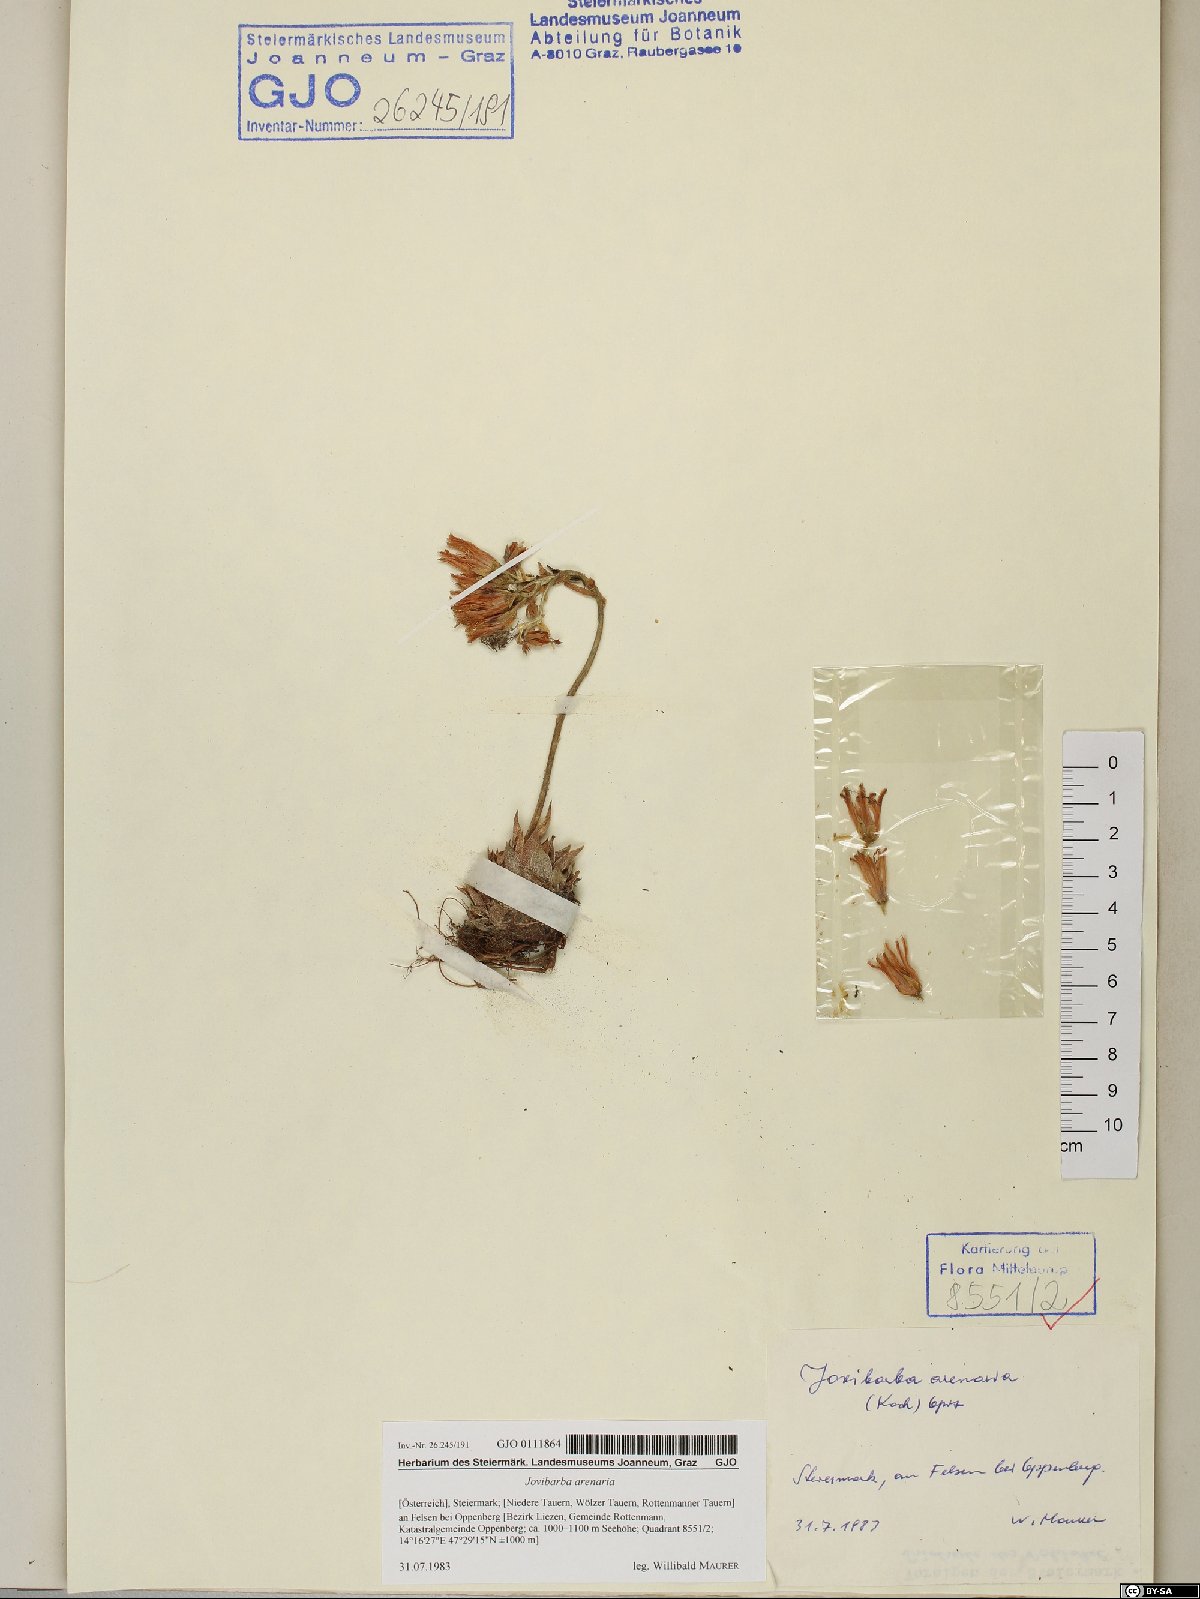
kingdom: Plantae
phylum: Tracheophyta
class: Magnoliopsida
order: Saxifragales
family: Crassulaceae
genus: Sempervivum
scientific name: Sempervivum globiferum
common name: Rolling hen-and-chicks
